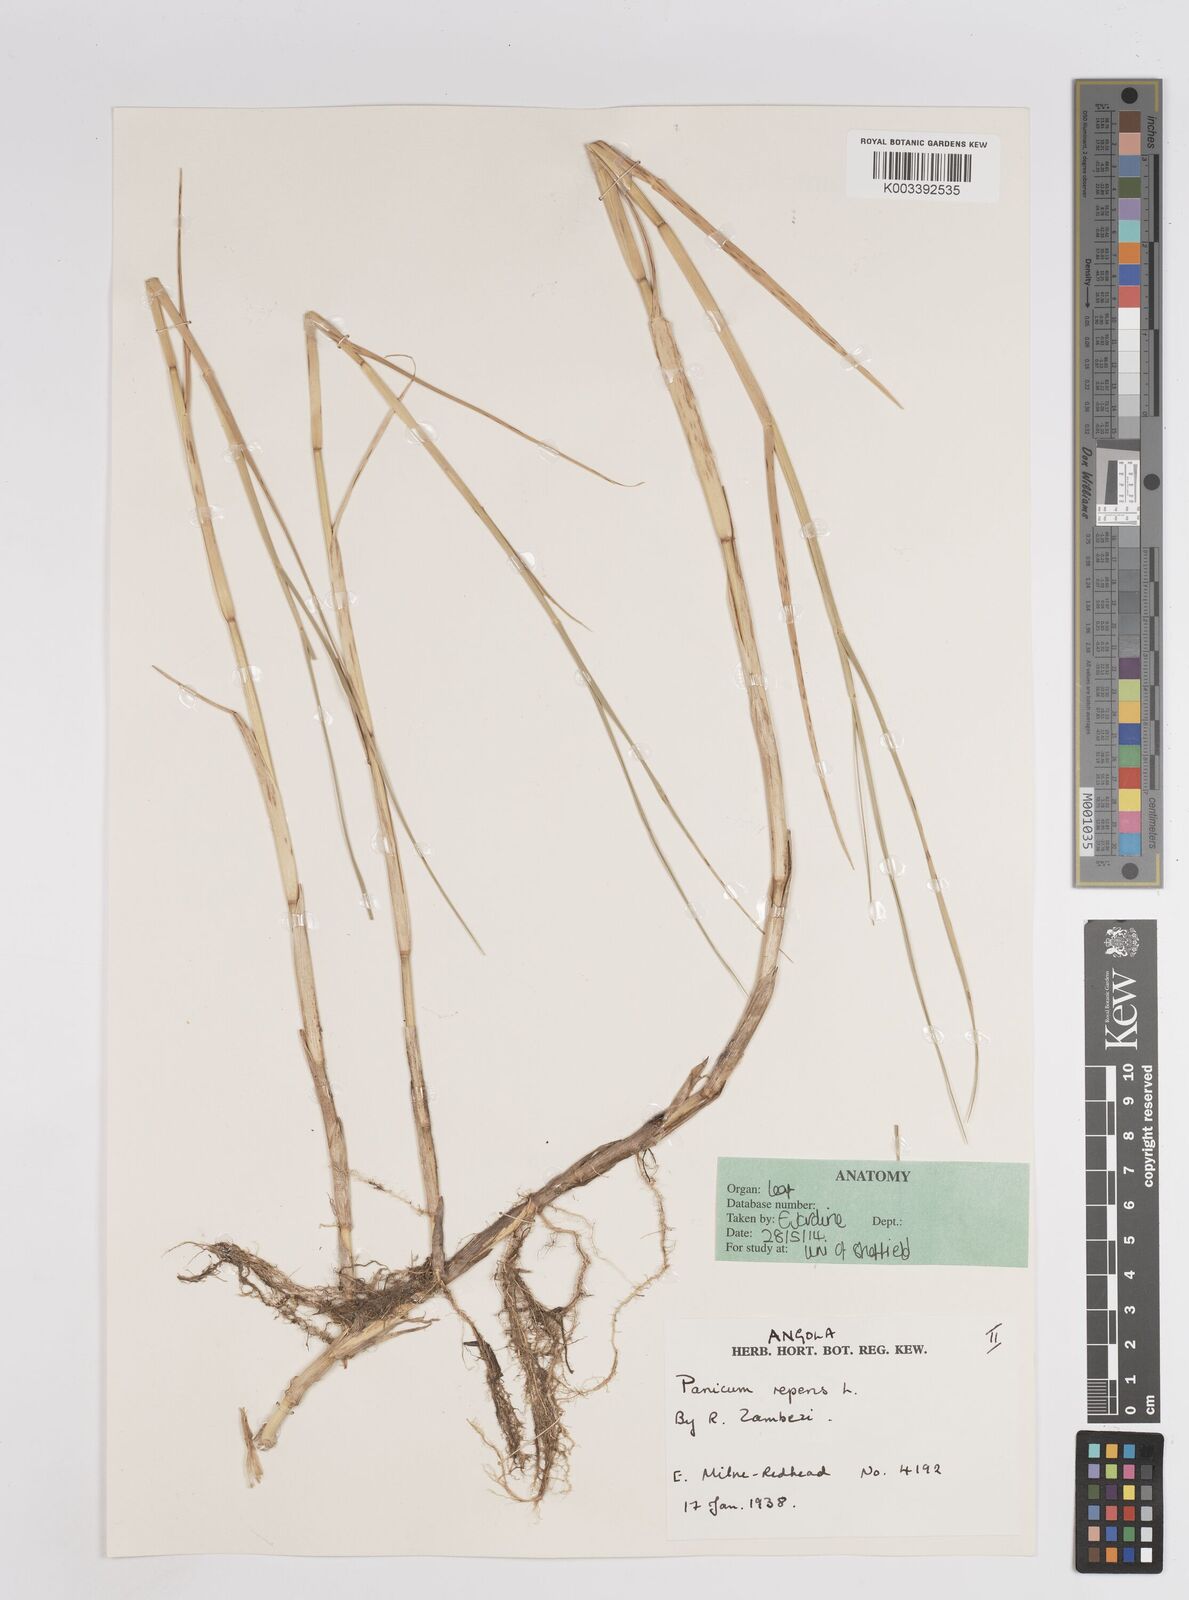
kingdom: Plantae
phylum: Tracheophyta
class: Liliopsida
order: Poales
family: Poaceae
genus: Panicum
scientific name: Panicum repens
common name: Torpedo grass
